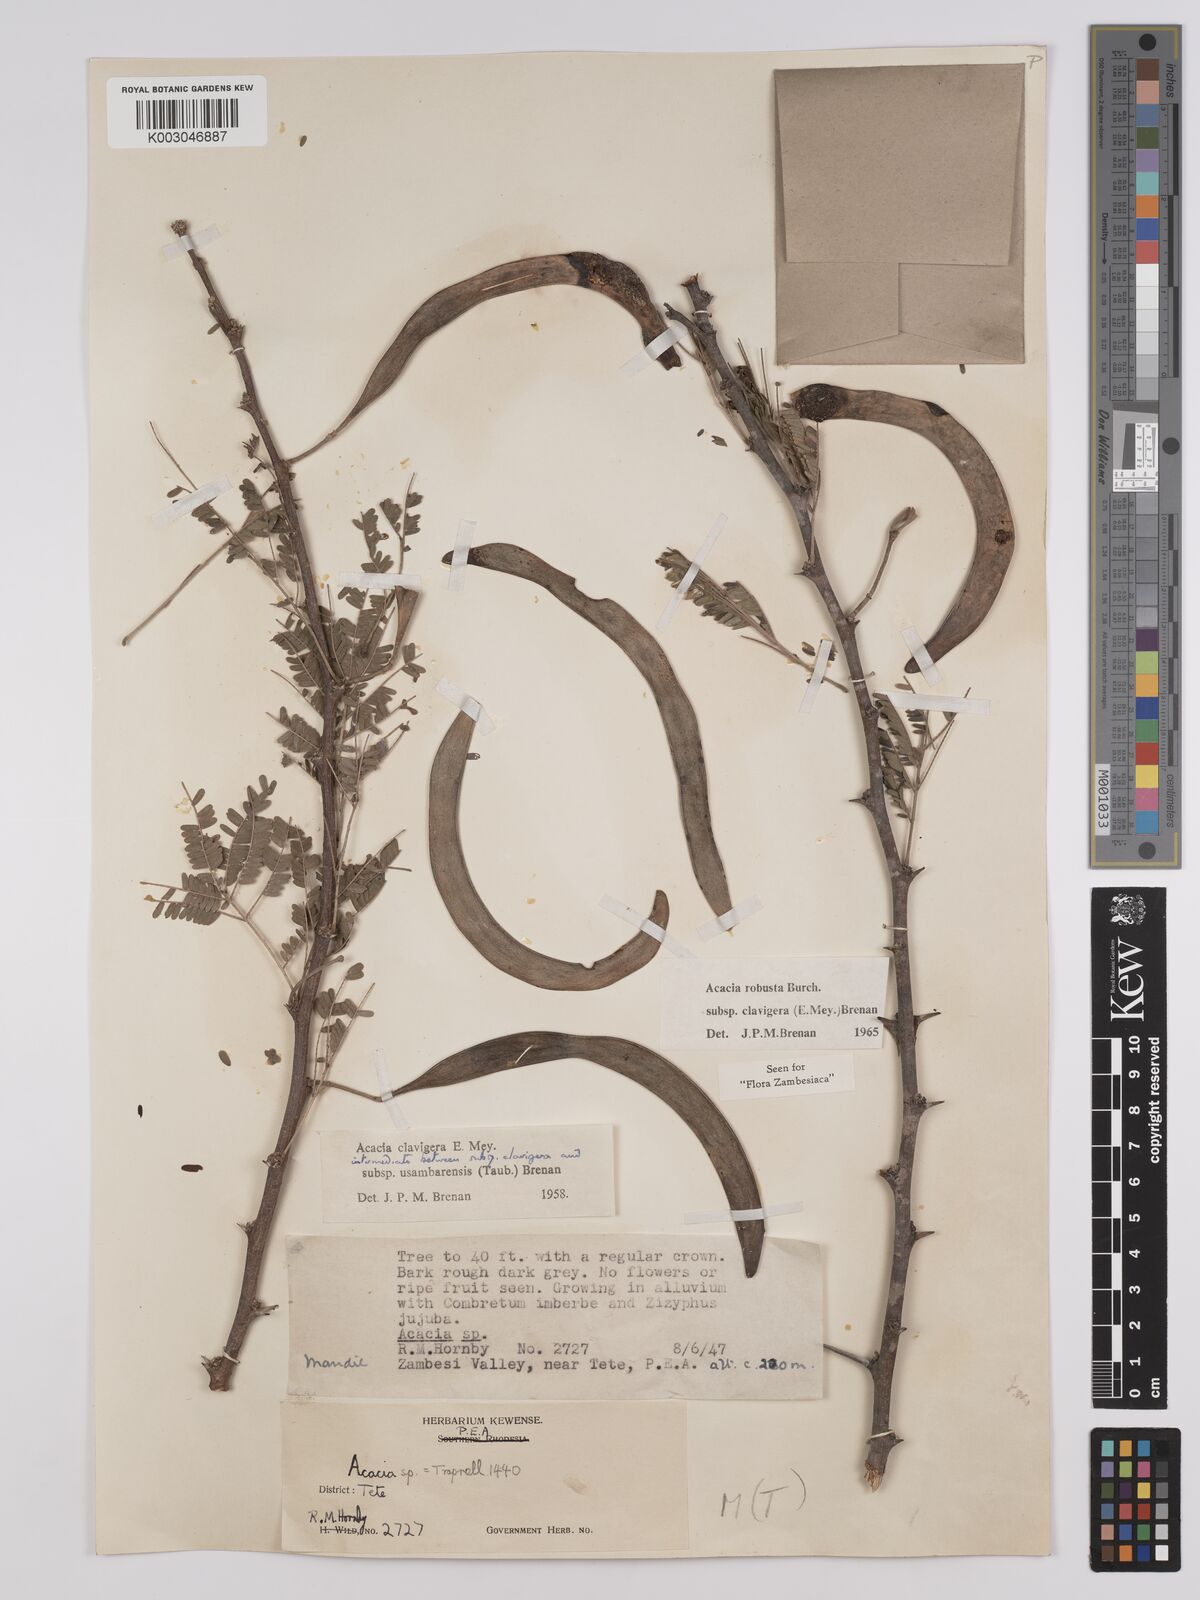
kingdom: Plantae
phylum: Tracheophyta
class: Magnoliopsida
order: Fabales
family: Fabaceae
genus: Vachellia
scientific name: Vachellia robusta
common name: Ankle thorn
